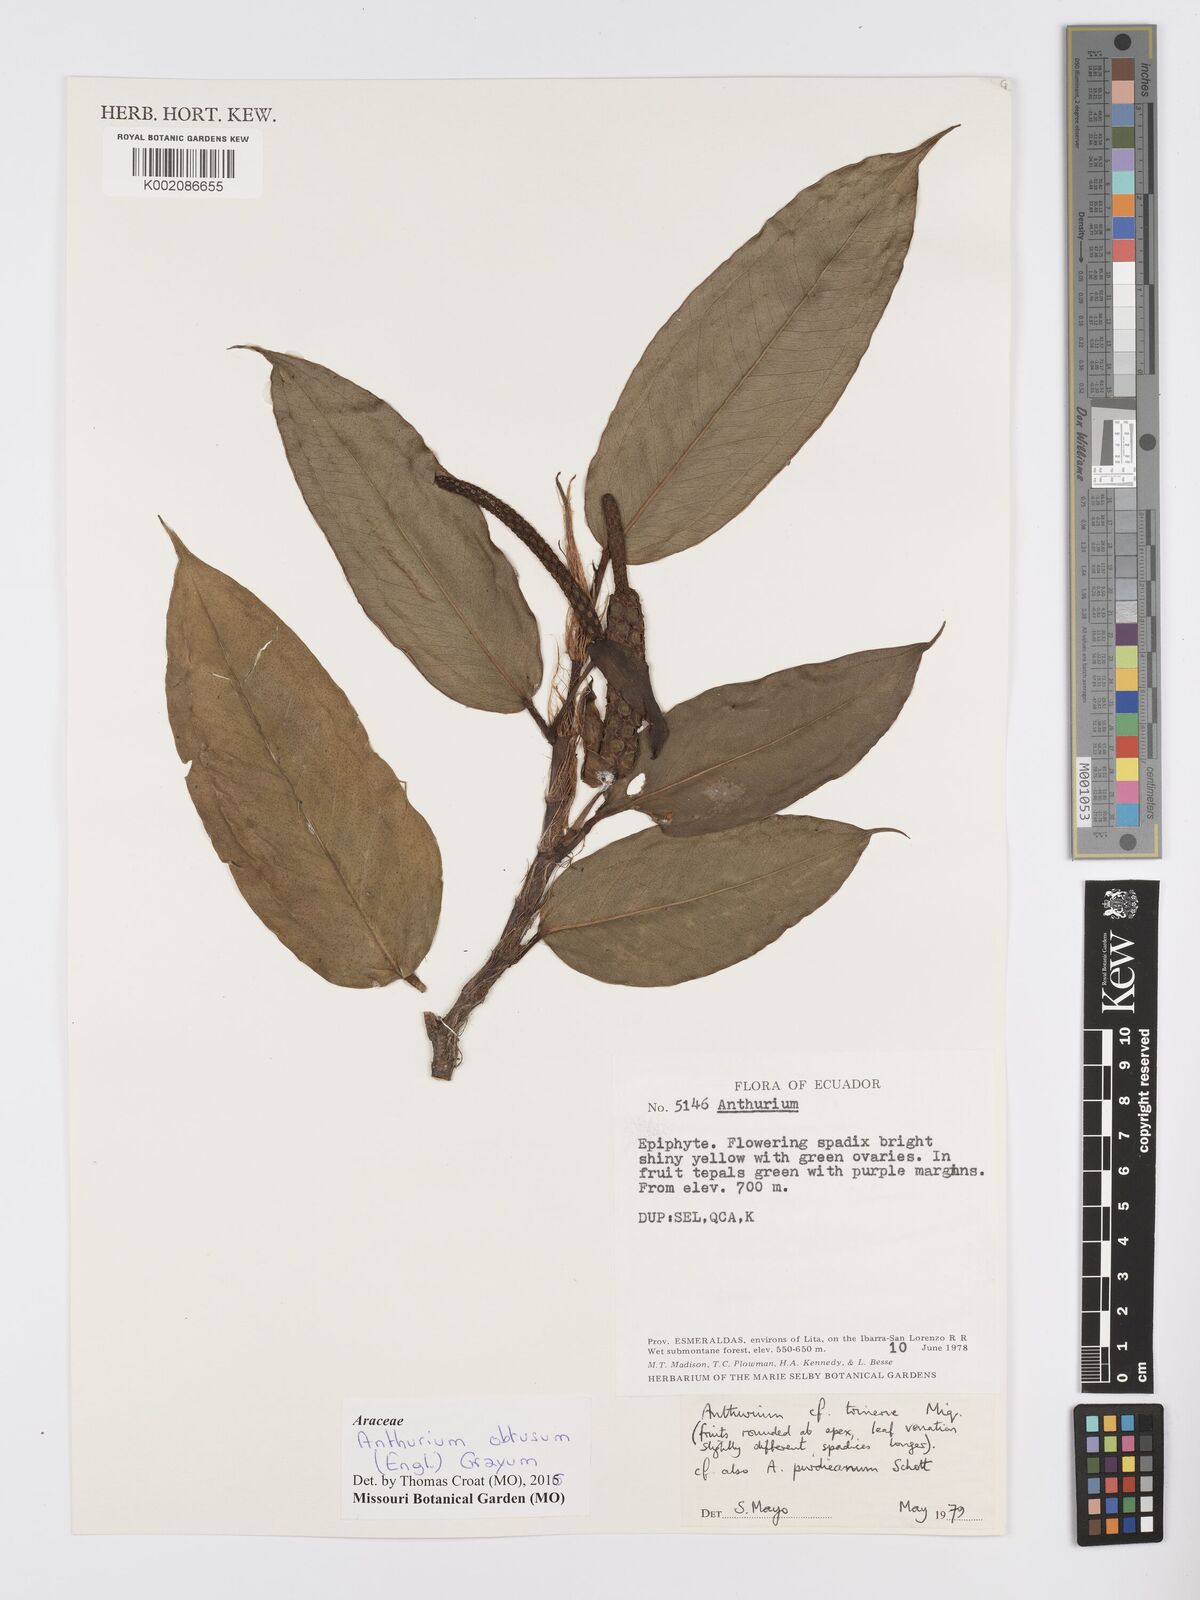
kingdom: Plantae
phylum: Tracheophyta
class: Liliopsida
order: Alismatales
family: Araceae
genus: Anthurium
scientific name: Anthurium obtusum
